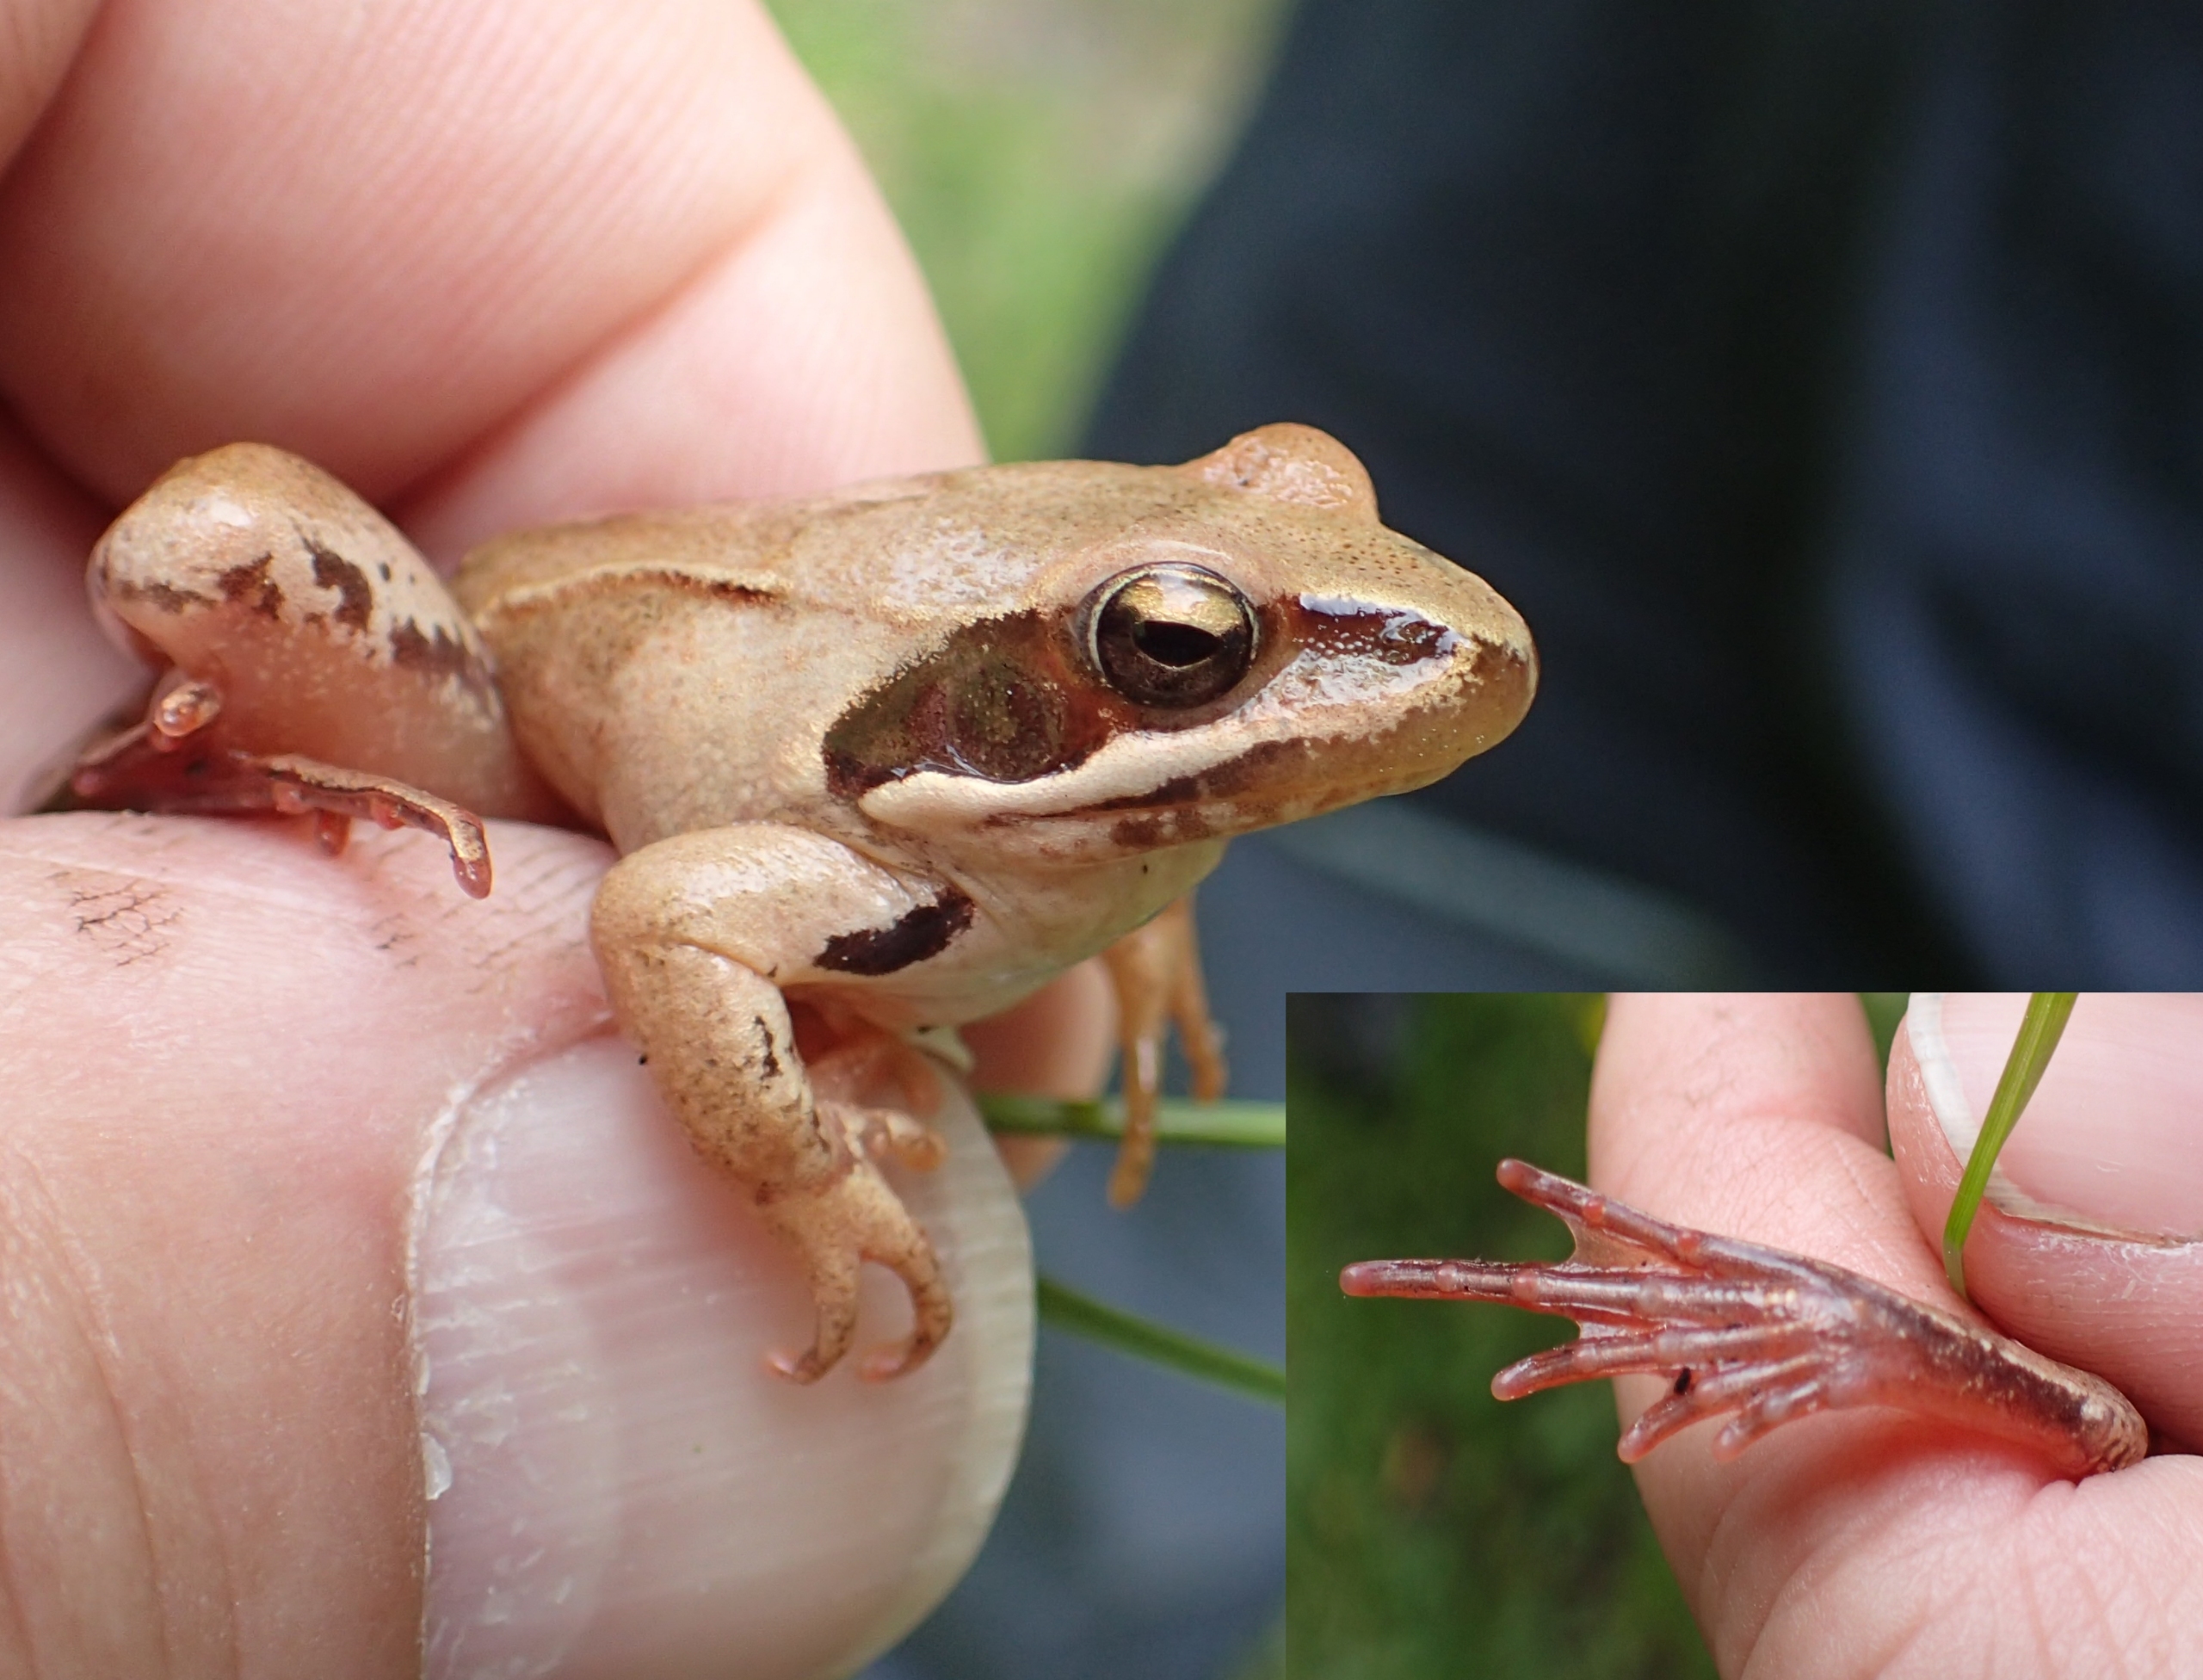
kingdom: Animalia
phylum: Chordata
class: Amphibia
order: Anura
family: Ranidae
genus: Rana
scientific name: Rana dalmatina
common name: Springfrø
